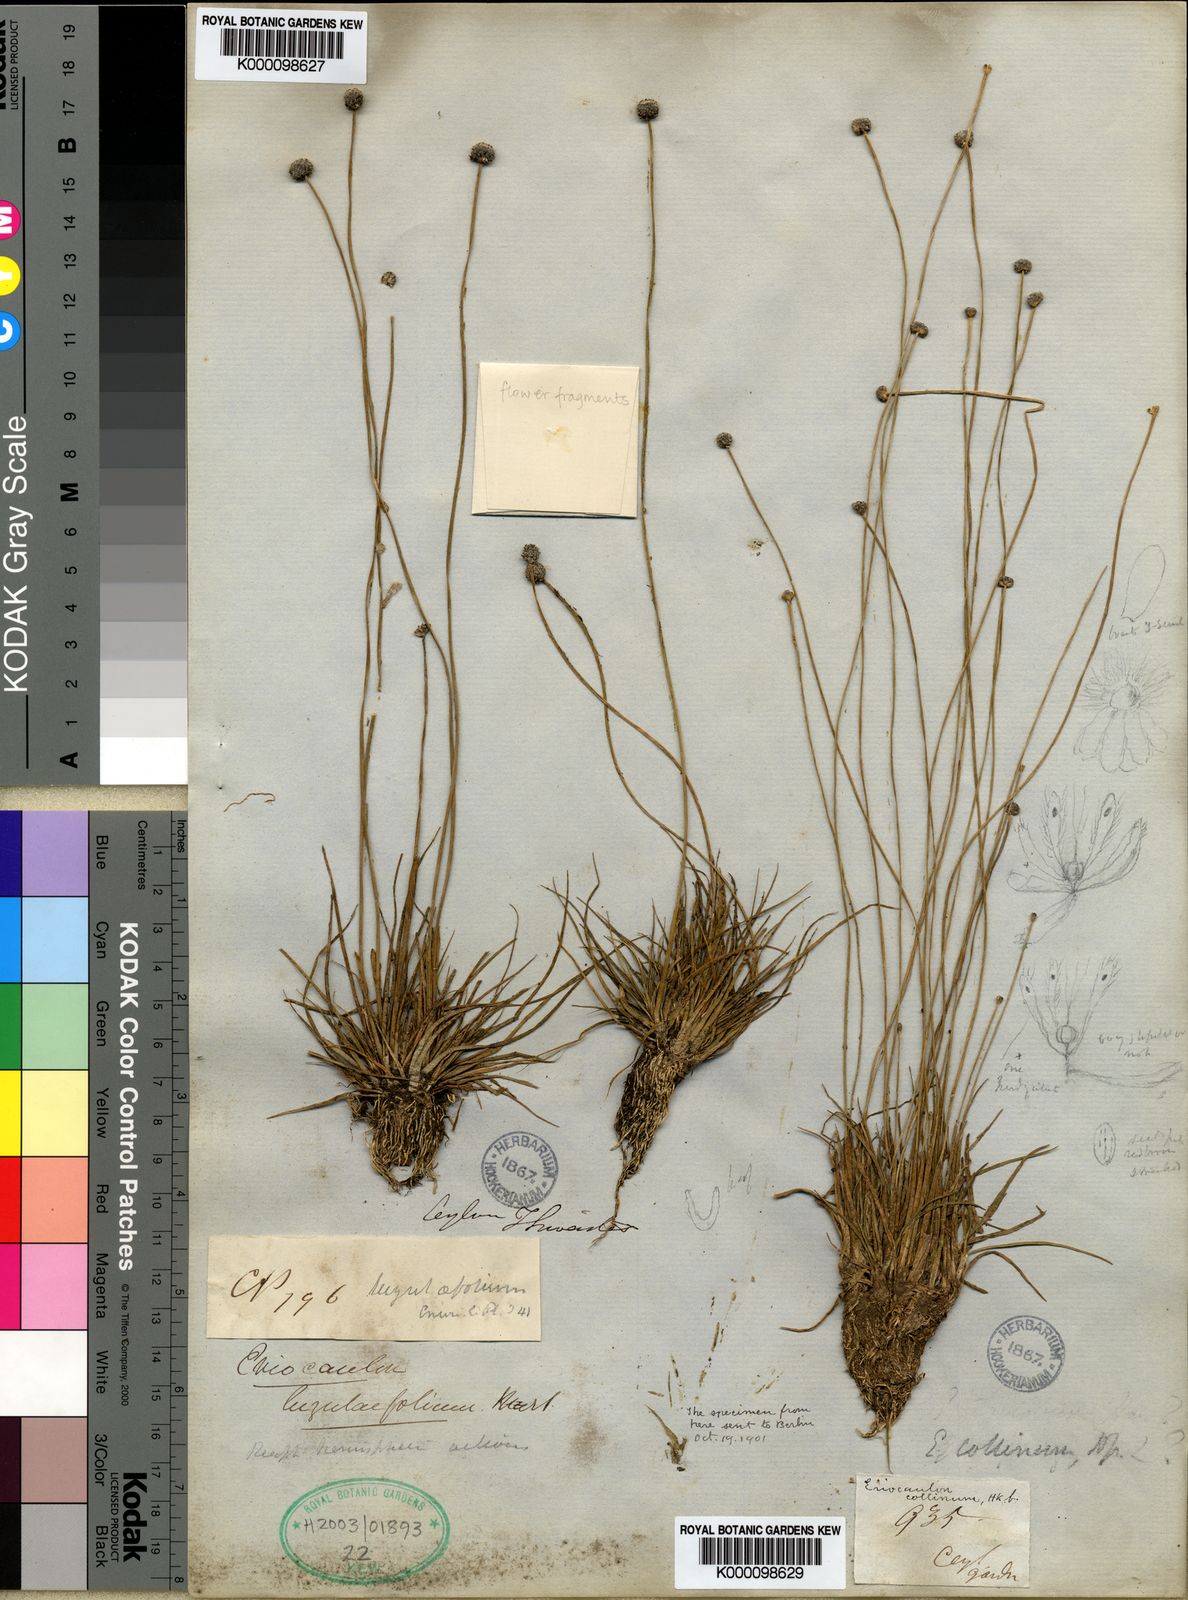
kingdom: Plantae
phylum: Tracheophyta
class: Liliopsida
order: Poales
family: Eriocaulaceae
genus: Eriocaulon
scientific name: Eriocaulon odoratum
